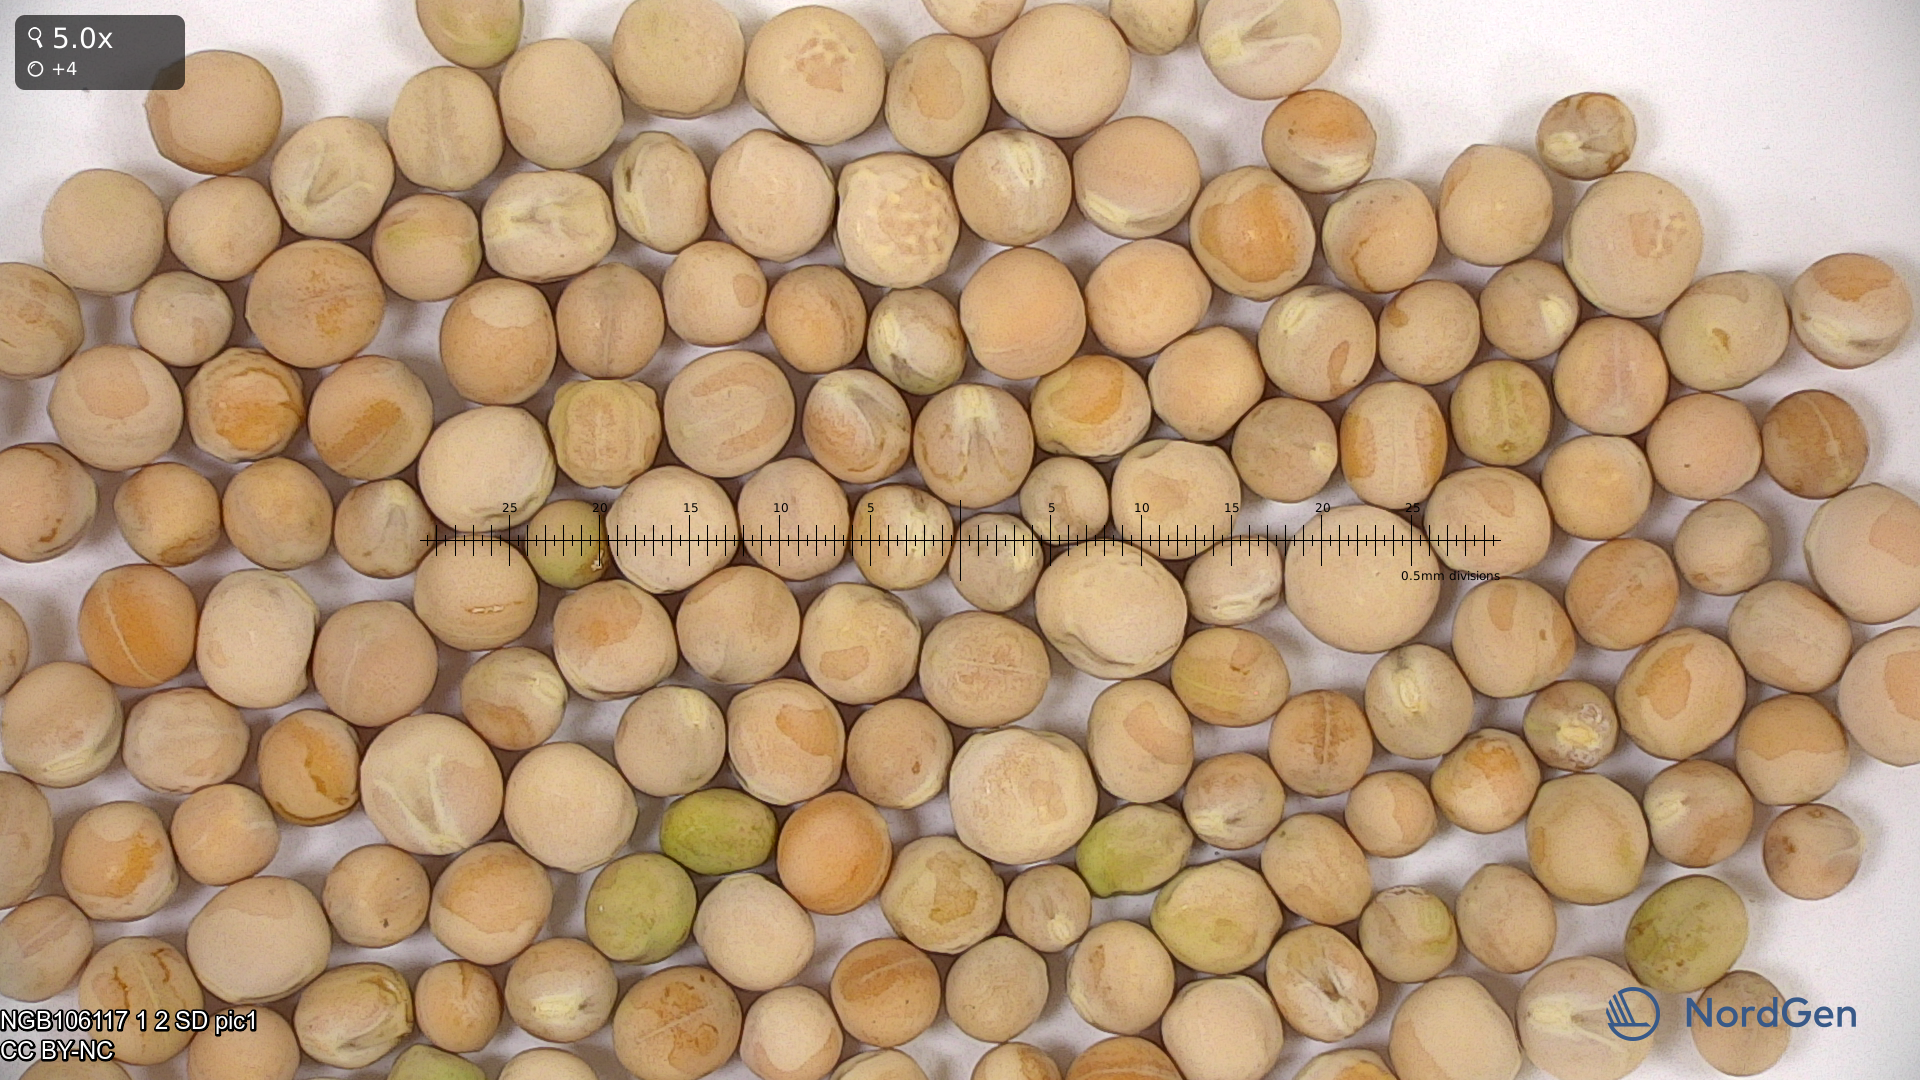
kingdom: Plantae
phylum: Tracheophyta
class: Magnoliopsida
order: Fabales
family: Fabaceae
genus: Lathyrus
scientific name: Lathyrus oleraceus
